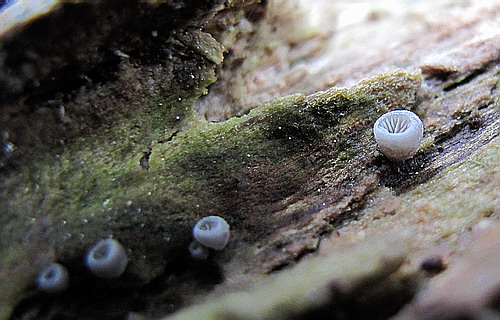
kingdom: Fungi
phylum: Basidiomycota
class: Agaricomycetes
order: Agaricales
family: Pleurotaceae
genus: Resupinatus
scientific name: Resupinatus applicatus
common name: lysfiltet barkhat
